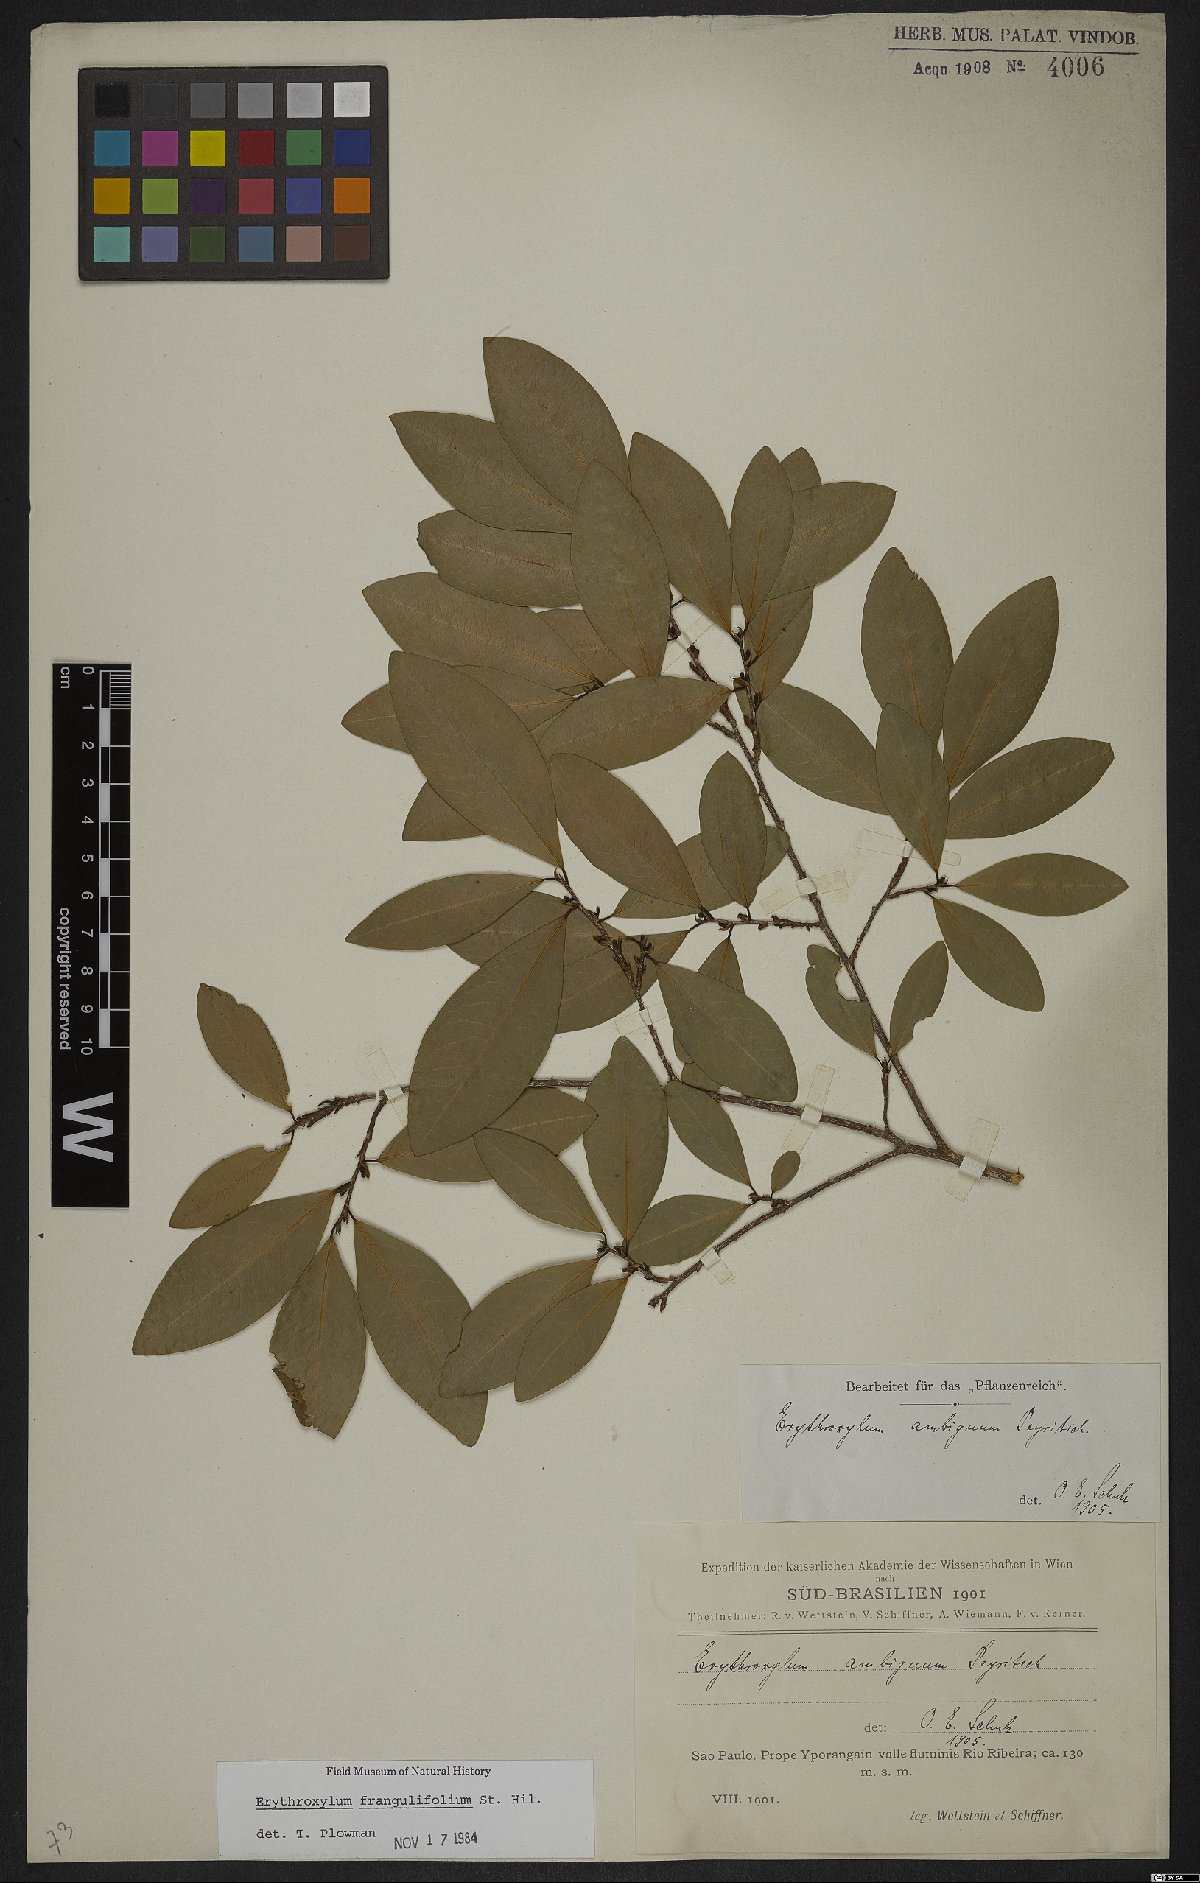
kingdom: Plantae
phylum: Tracheophyta
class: Magnoliopsida
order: Malpighiales
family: Erythroxylaceae
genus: Erythroxylum
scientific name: Erythroxylum frangulifolium
